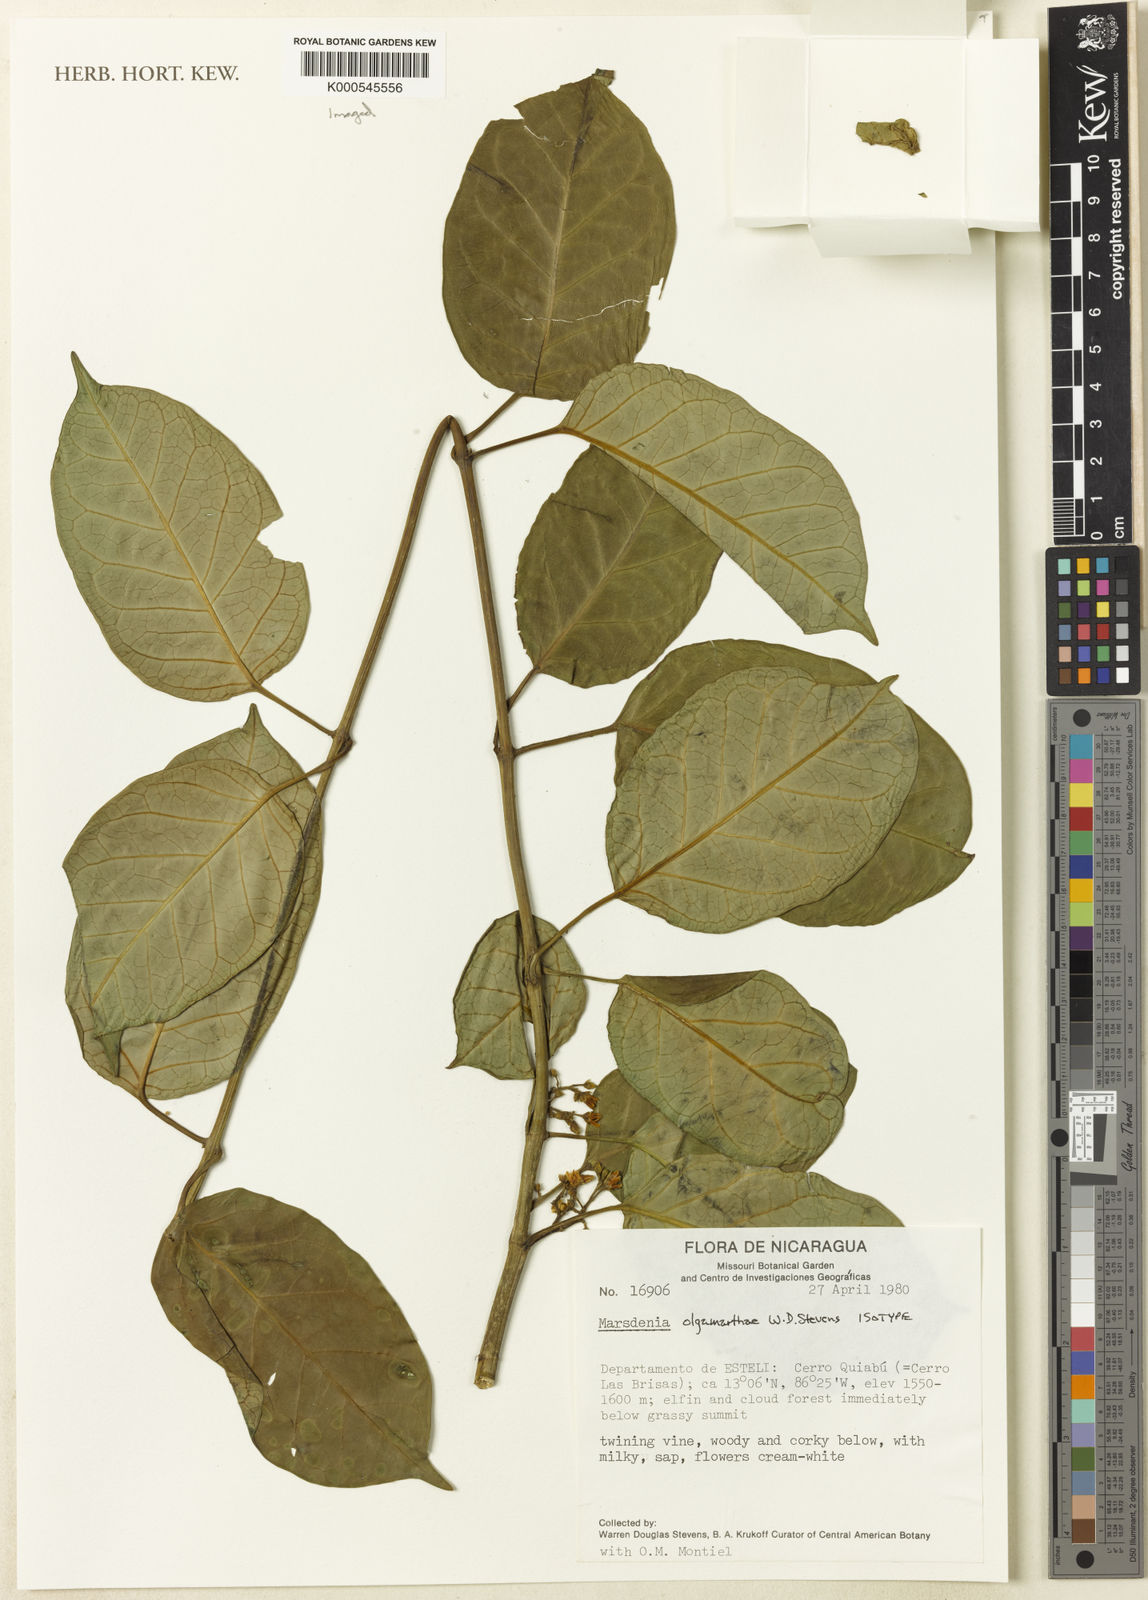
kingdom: Plantae
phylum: Tracheophyta
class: Magnoliopsida
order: Gentianales
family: Apocynaceae
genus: Ruehssia
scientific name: Ruehssia olgamarthae
